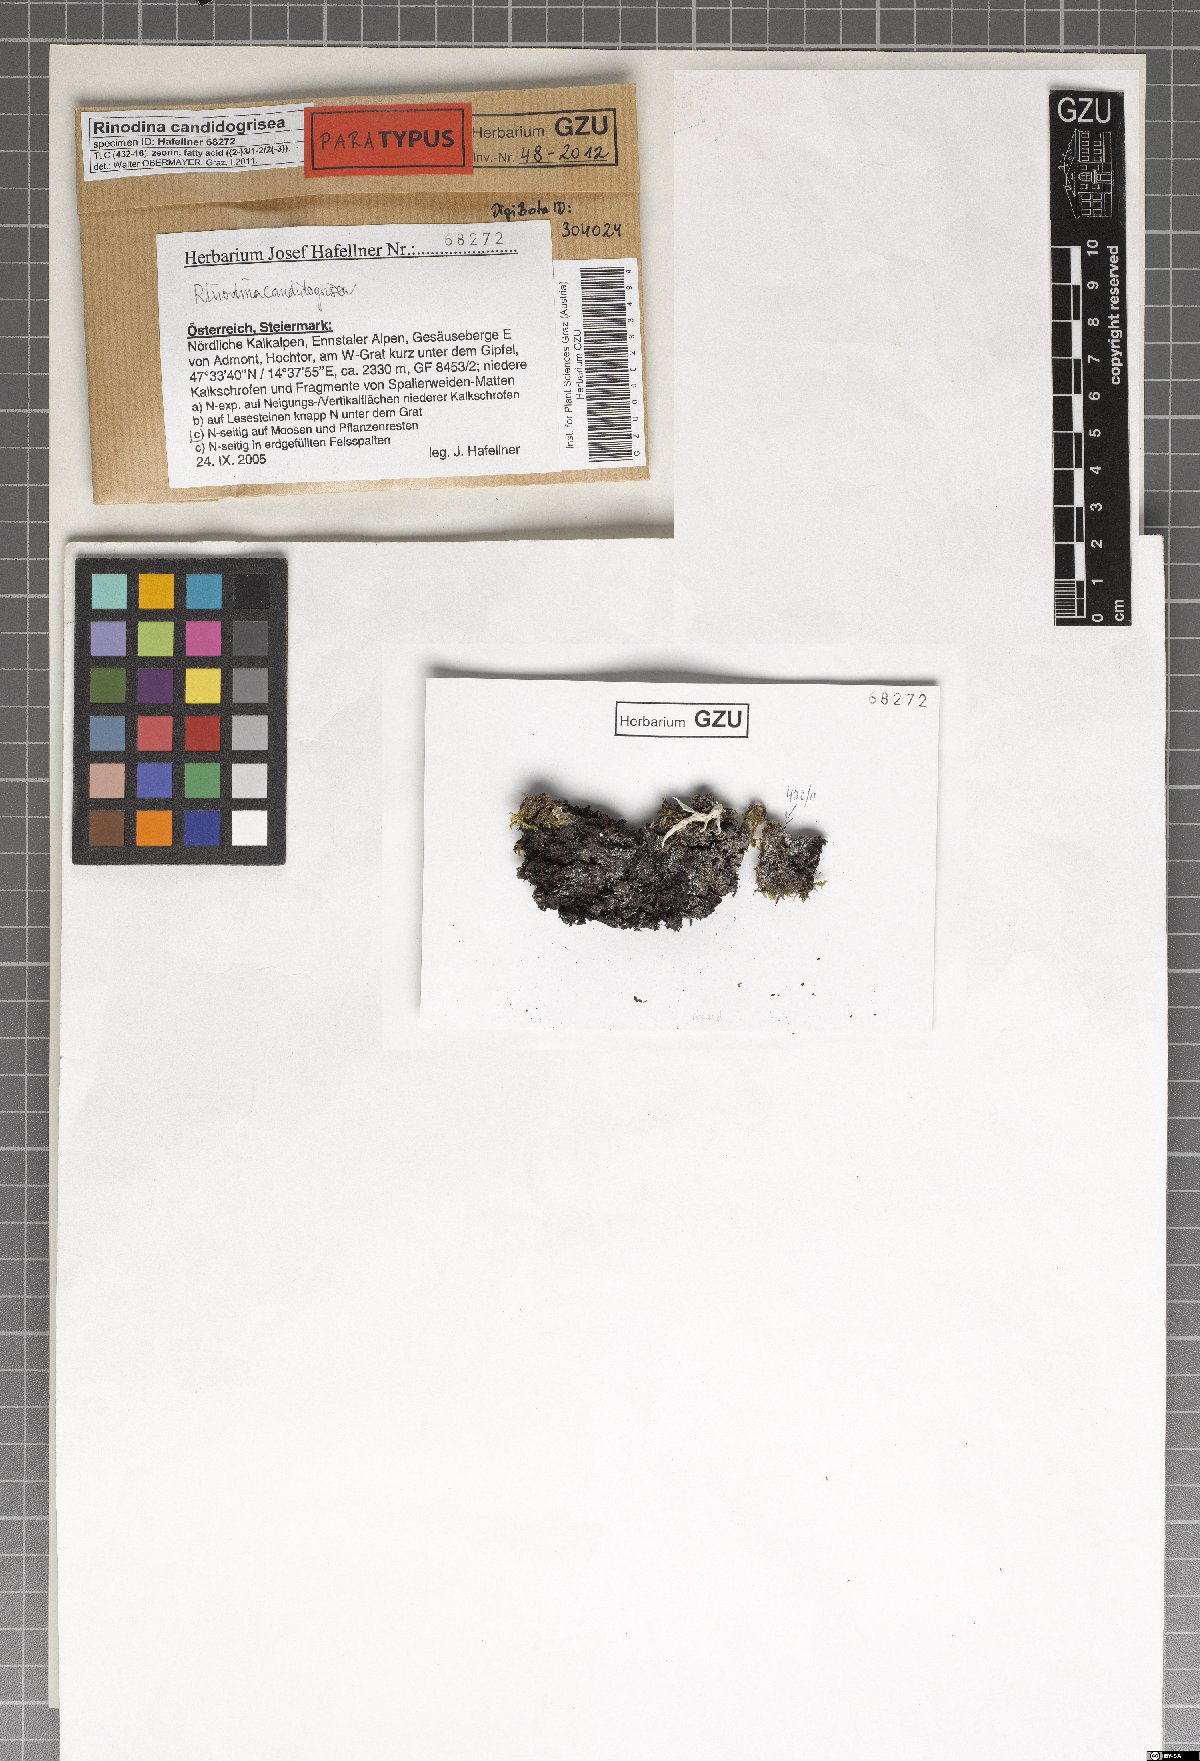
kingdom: Fungi
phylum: Ascomycota
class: Lecanoromycetes
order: Caliciales
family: Physciaceae
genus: Kudratovia
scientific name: Kudratovia candidogrisea
